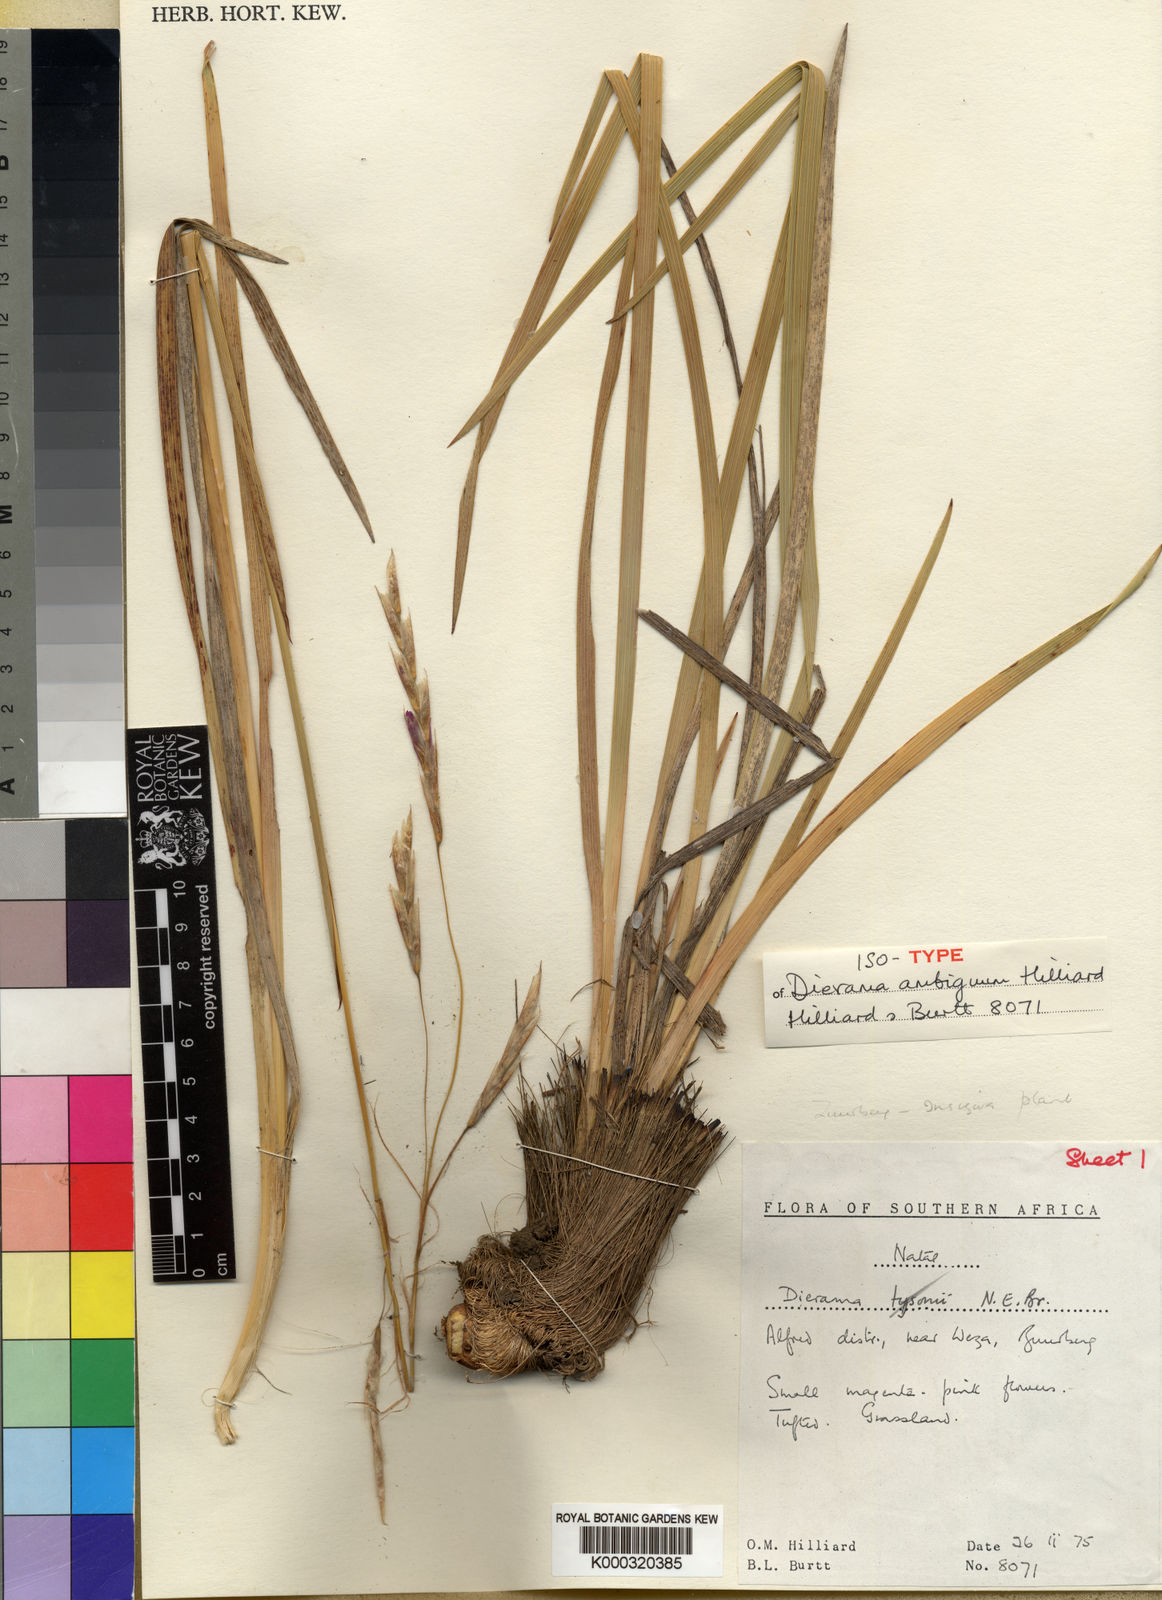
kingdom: Plantae
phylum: Tracheophyta
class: Liliopsida
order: Asparagales
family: Iridaceae
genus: Dierama
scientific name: Dierama ambiguum
